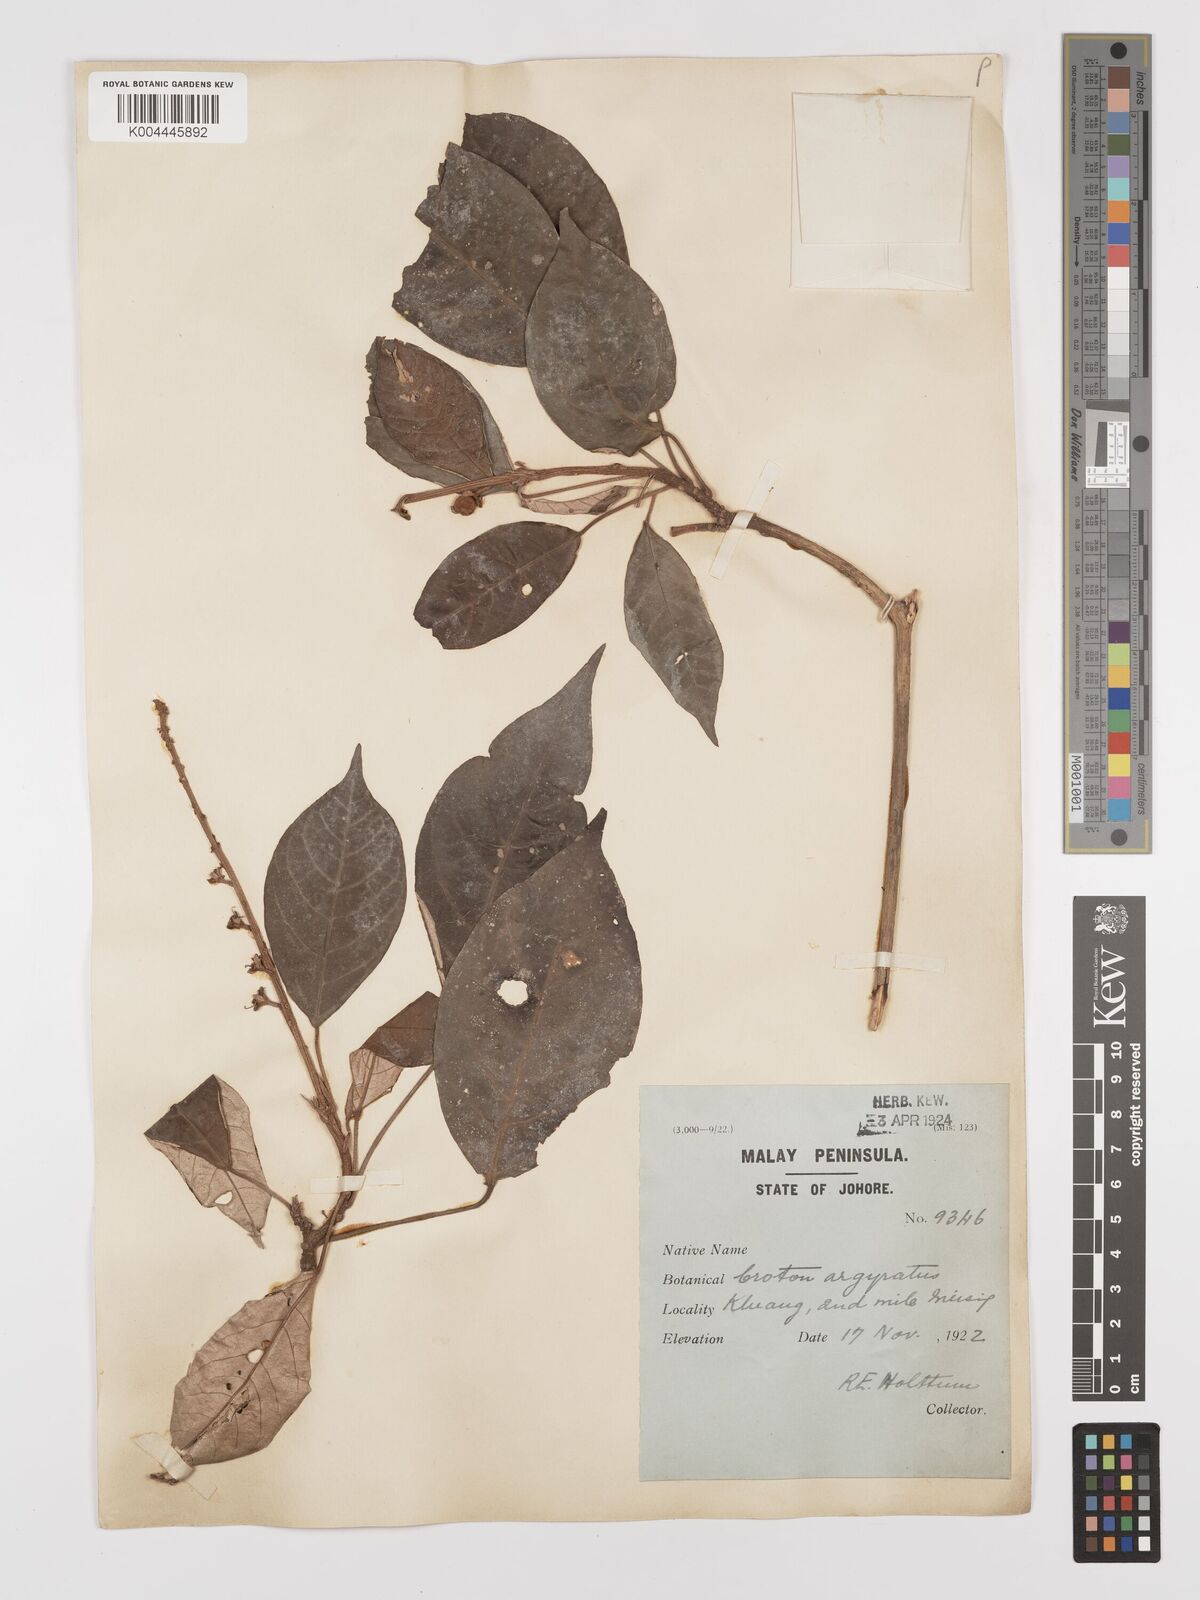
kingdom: Plantae
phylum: Tracheophyta
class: Magnoliopsida
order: Malpighiales
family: Euphorbiaceae
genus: Croton
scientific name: Croton argyratus
